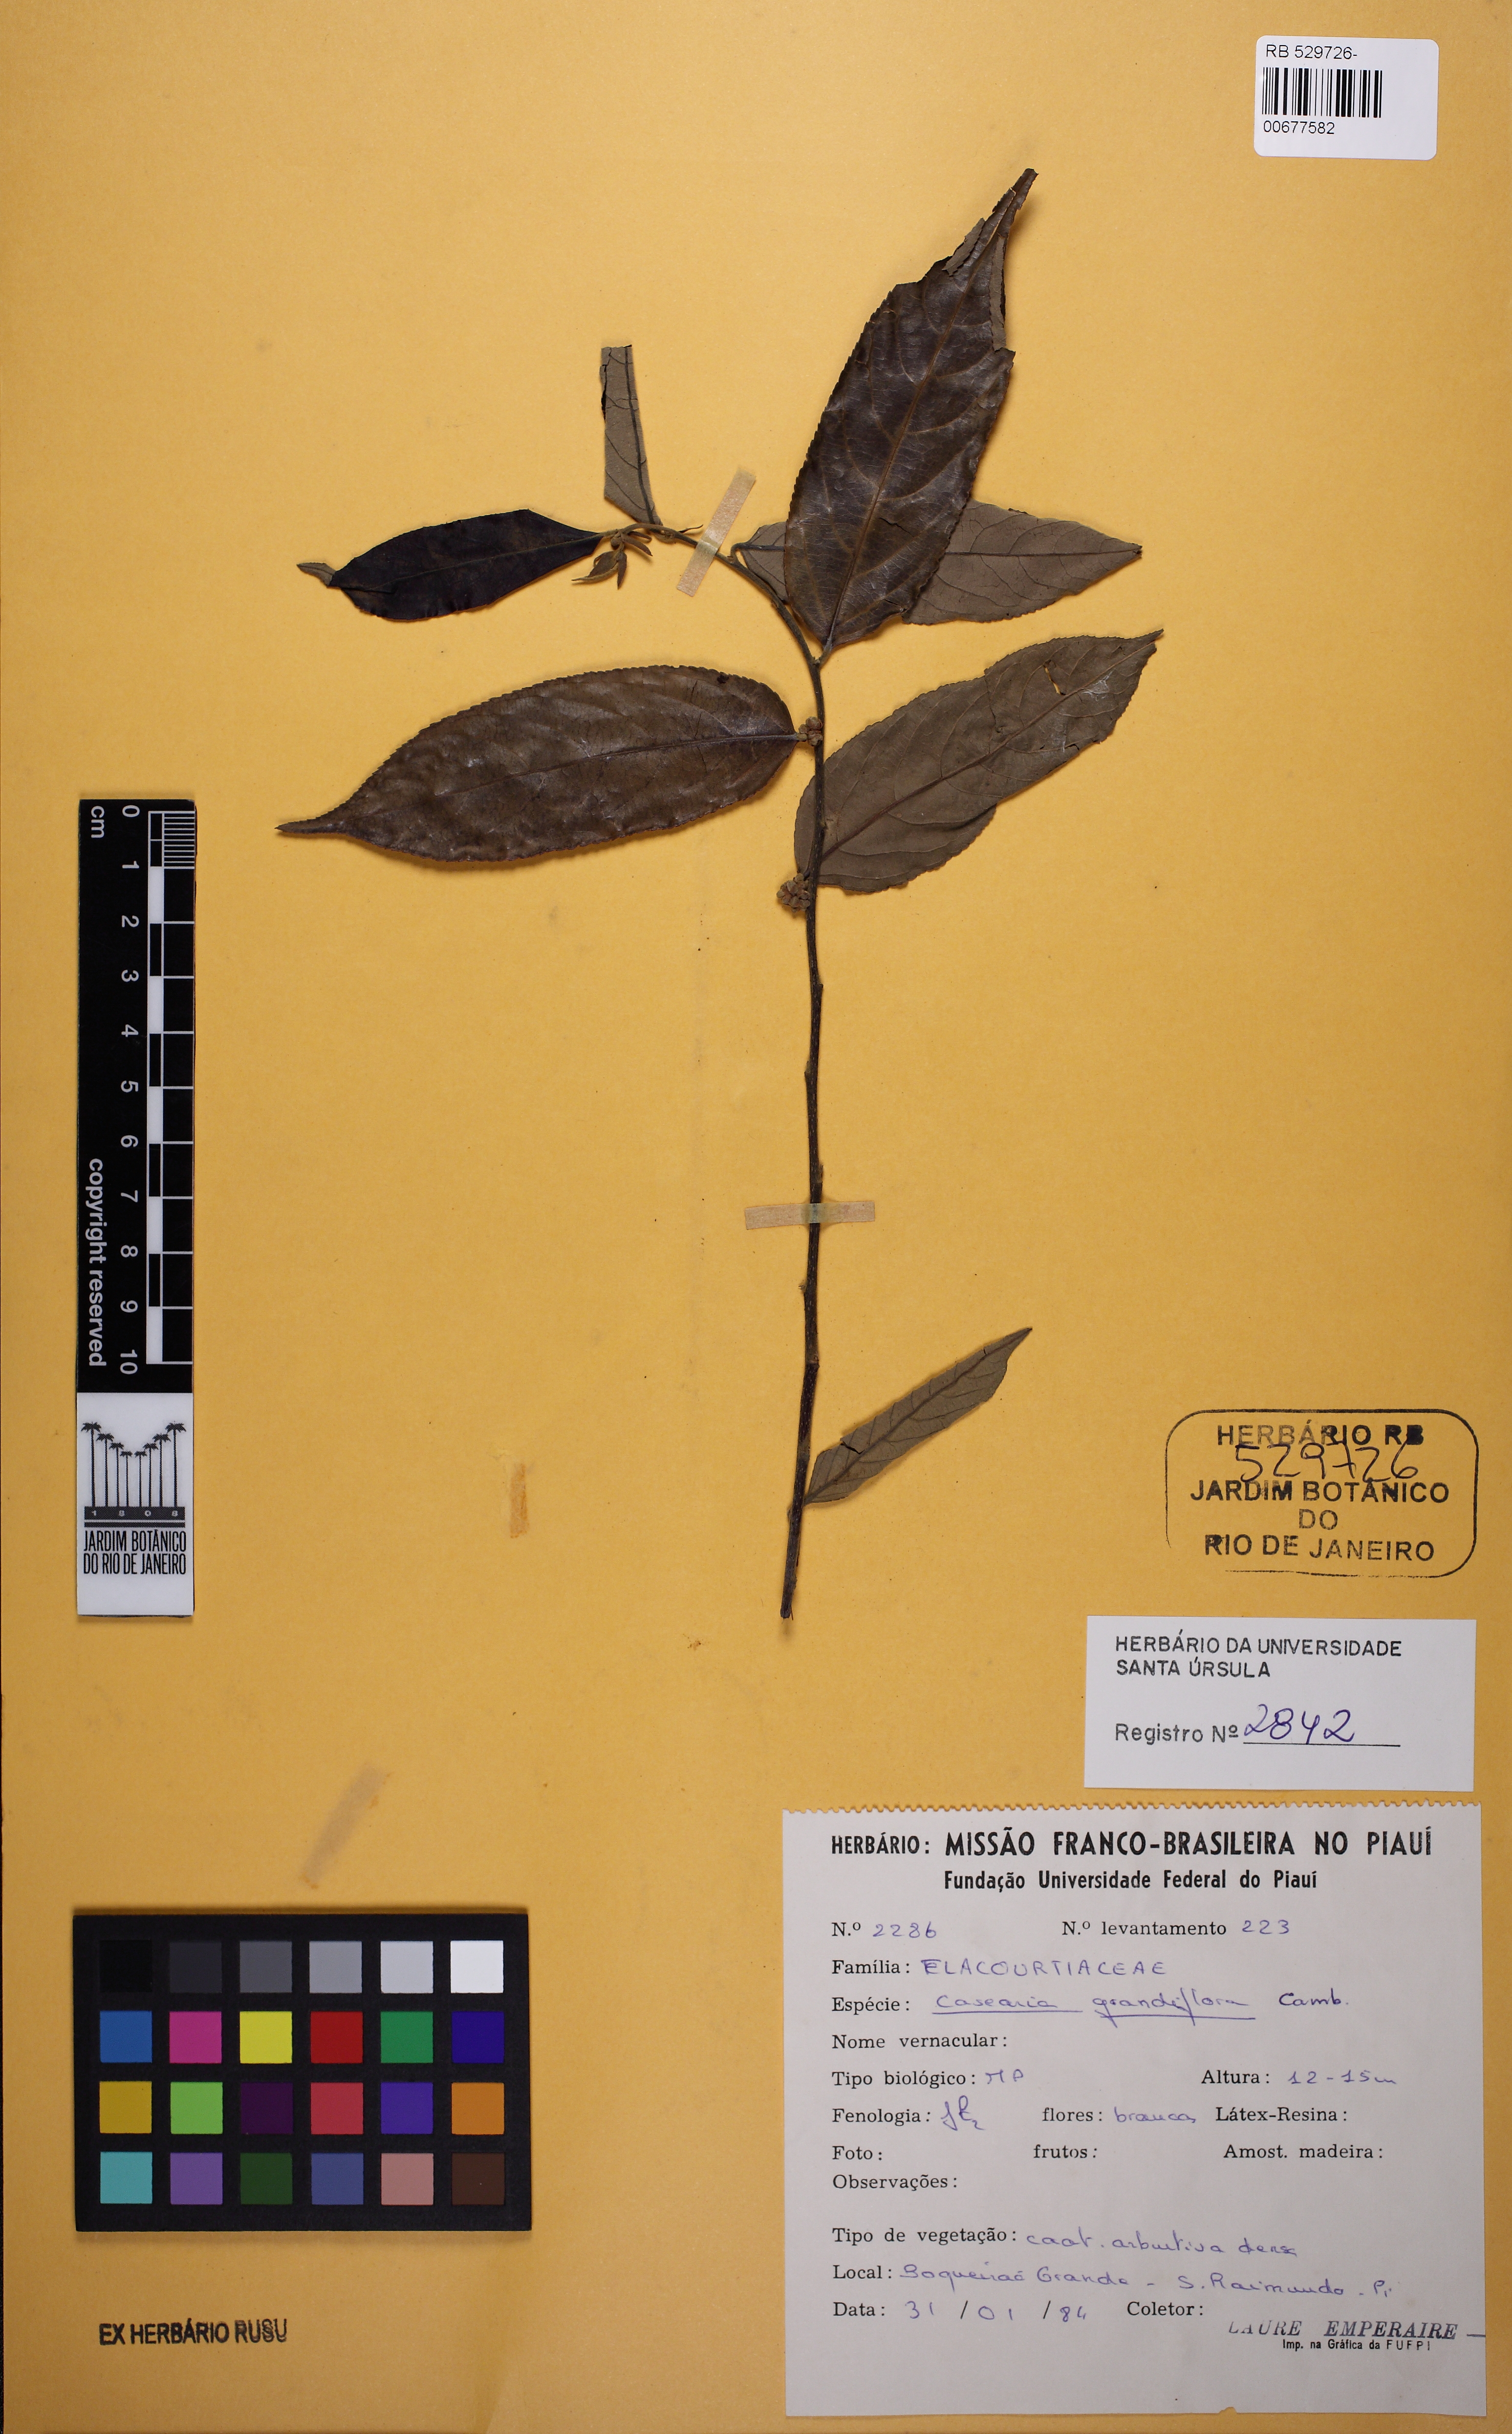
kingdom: Plantae
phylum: Tracheophyta
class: Magnoliopsida
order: Malpighiales
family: Salicaceae
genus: Casearia
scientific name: Casearia grandiflora
